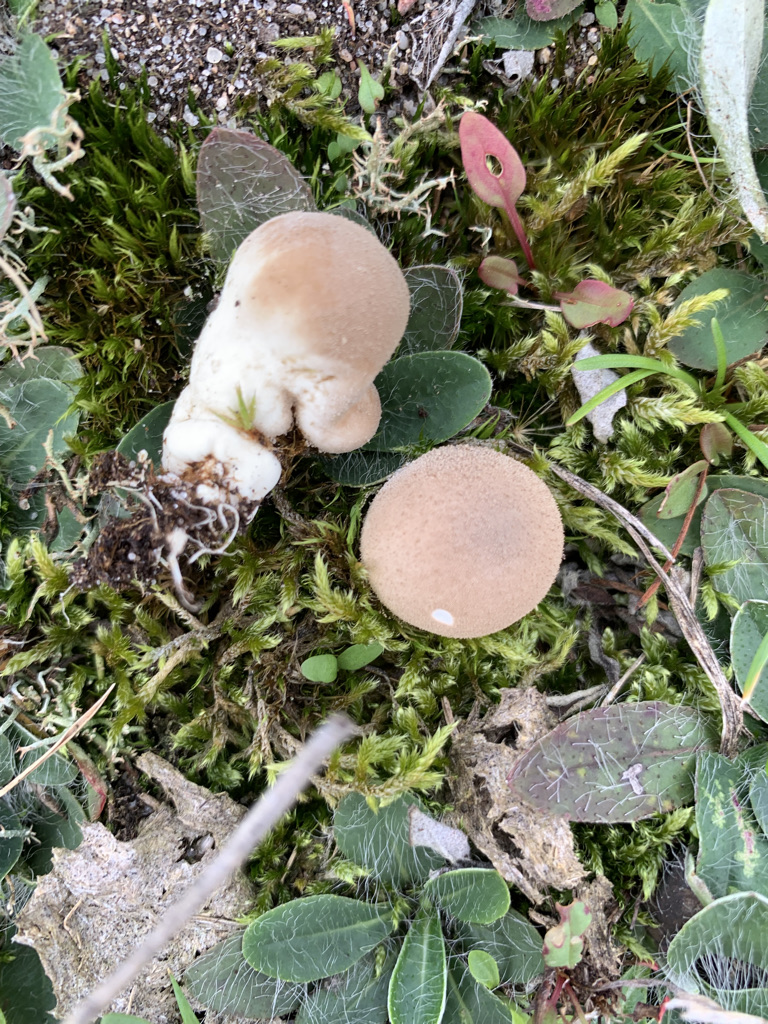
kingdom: Fungi
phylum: Basidiomycota
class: Agaricomycetes
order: Agaricales
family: Lycoperdaceae
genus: Lycoperdon
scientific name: Lycoperdon lividum
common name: mark-støvbold
